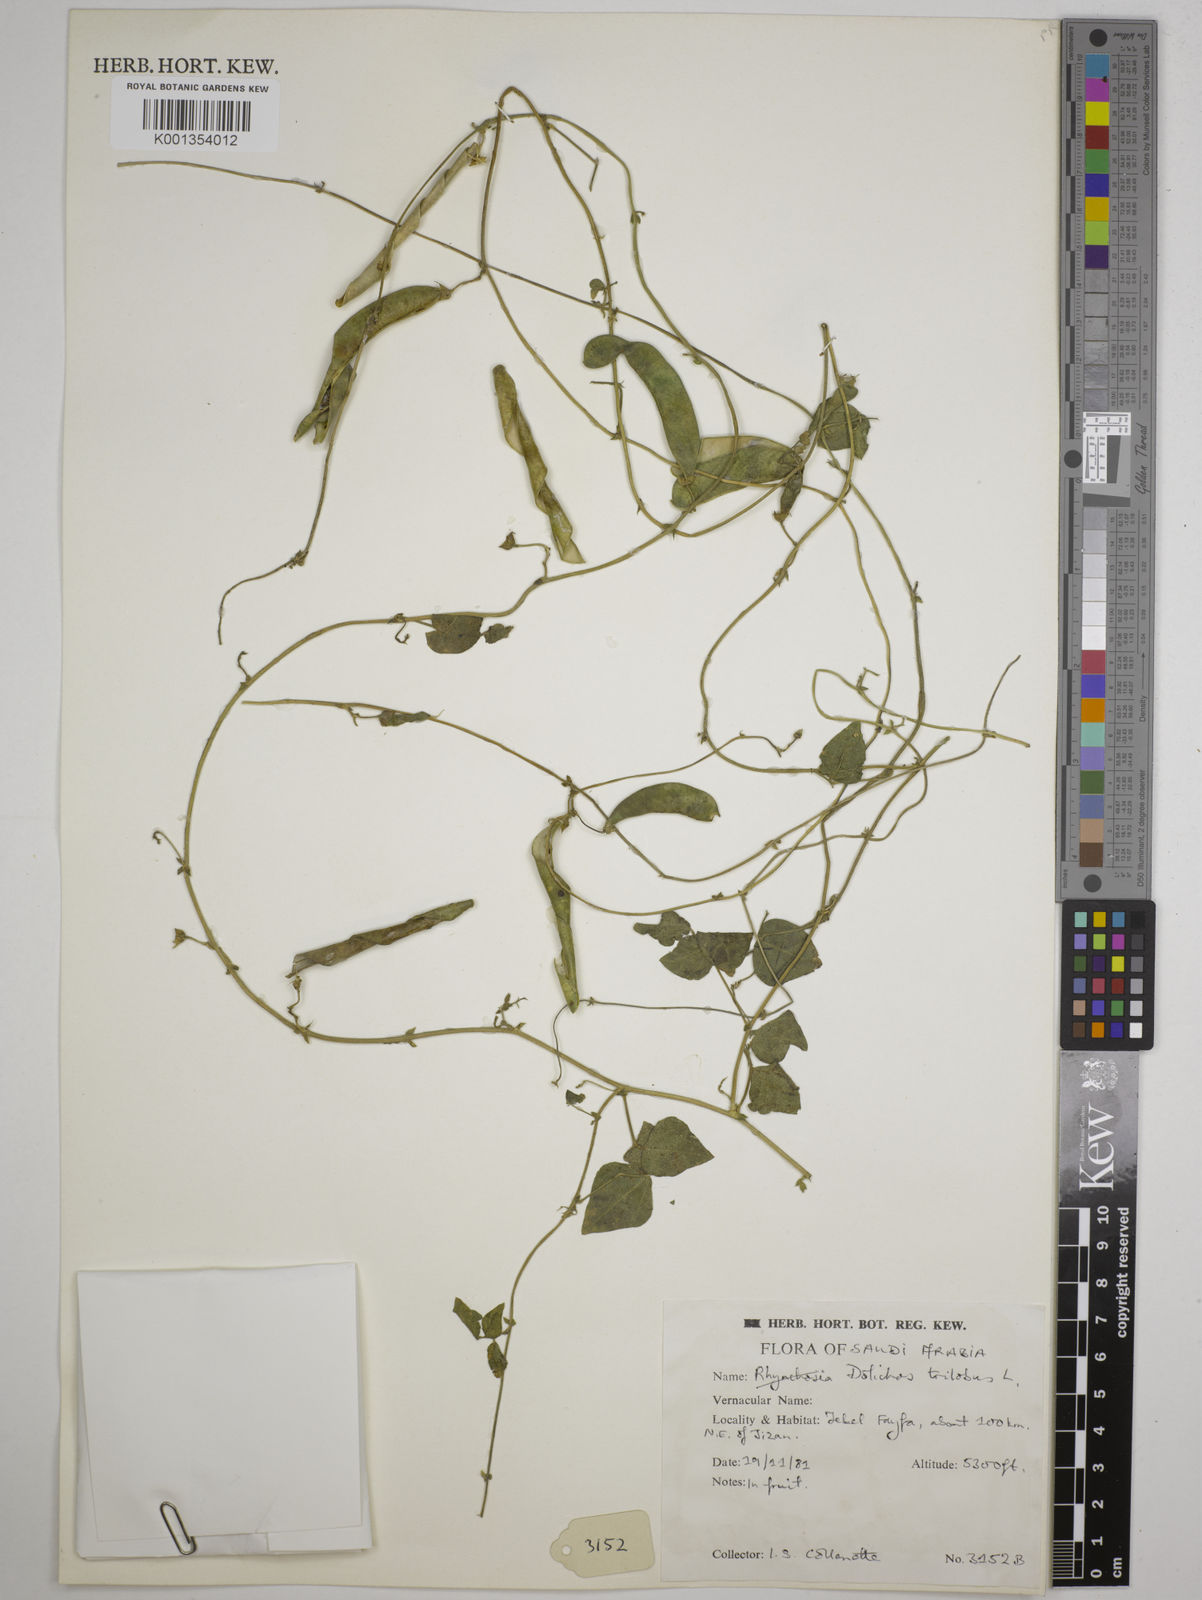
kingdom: Plantae
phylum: Tracheophyta
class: Magnoliopsida
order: Fabales
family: Fabaceae
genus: Dolichos
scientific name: Dolichos
